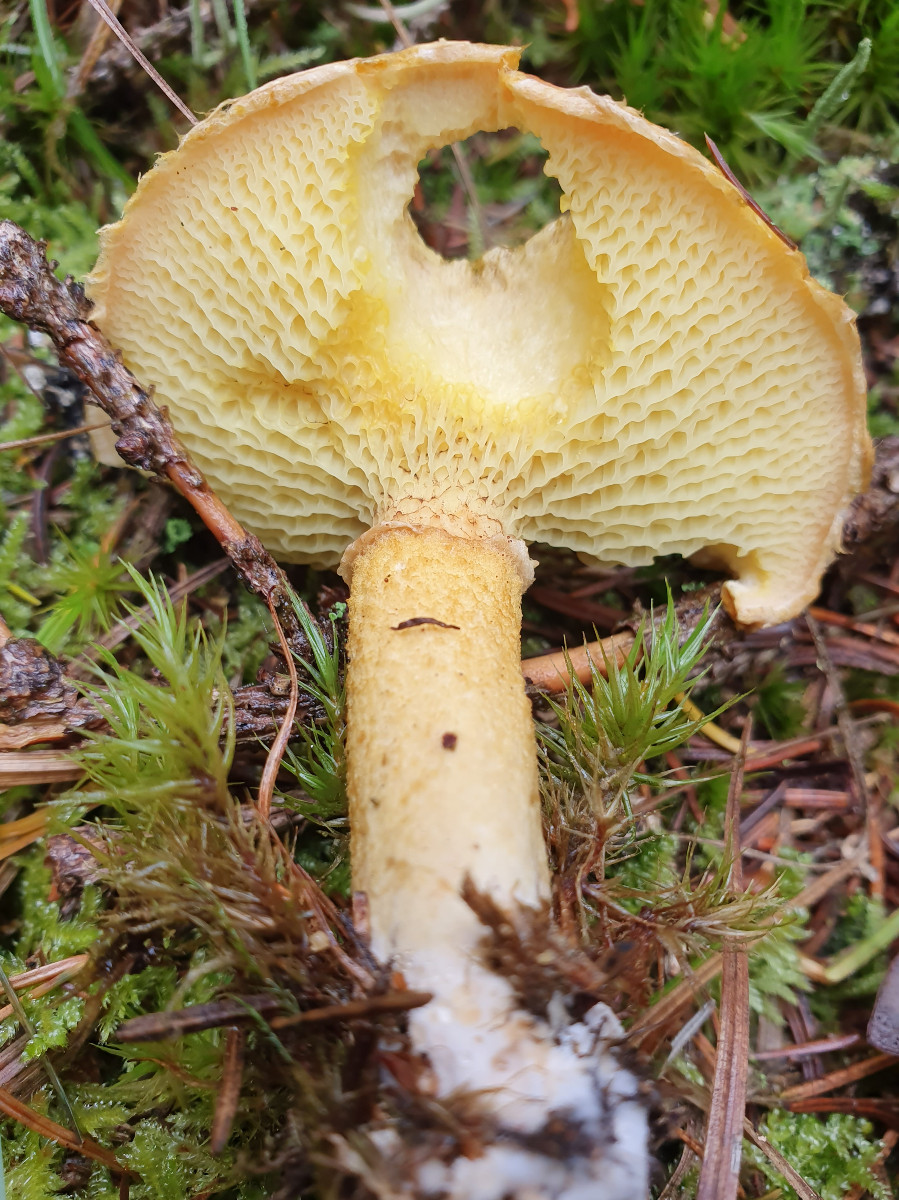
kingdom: Fungi
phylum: Basidiomycota
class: Agaricomycetes
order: Boletales
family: Suillaceae
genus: Suillus
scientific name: Suillus cavipes
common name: hulstokket slimrørhat
